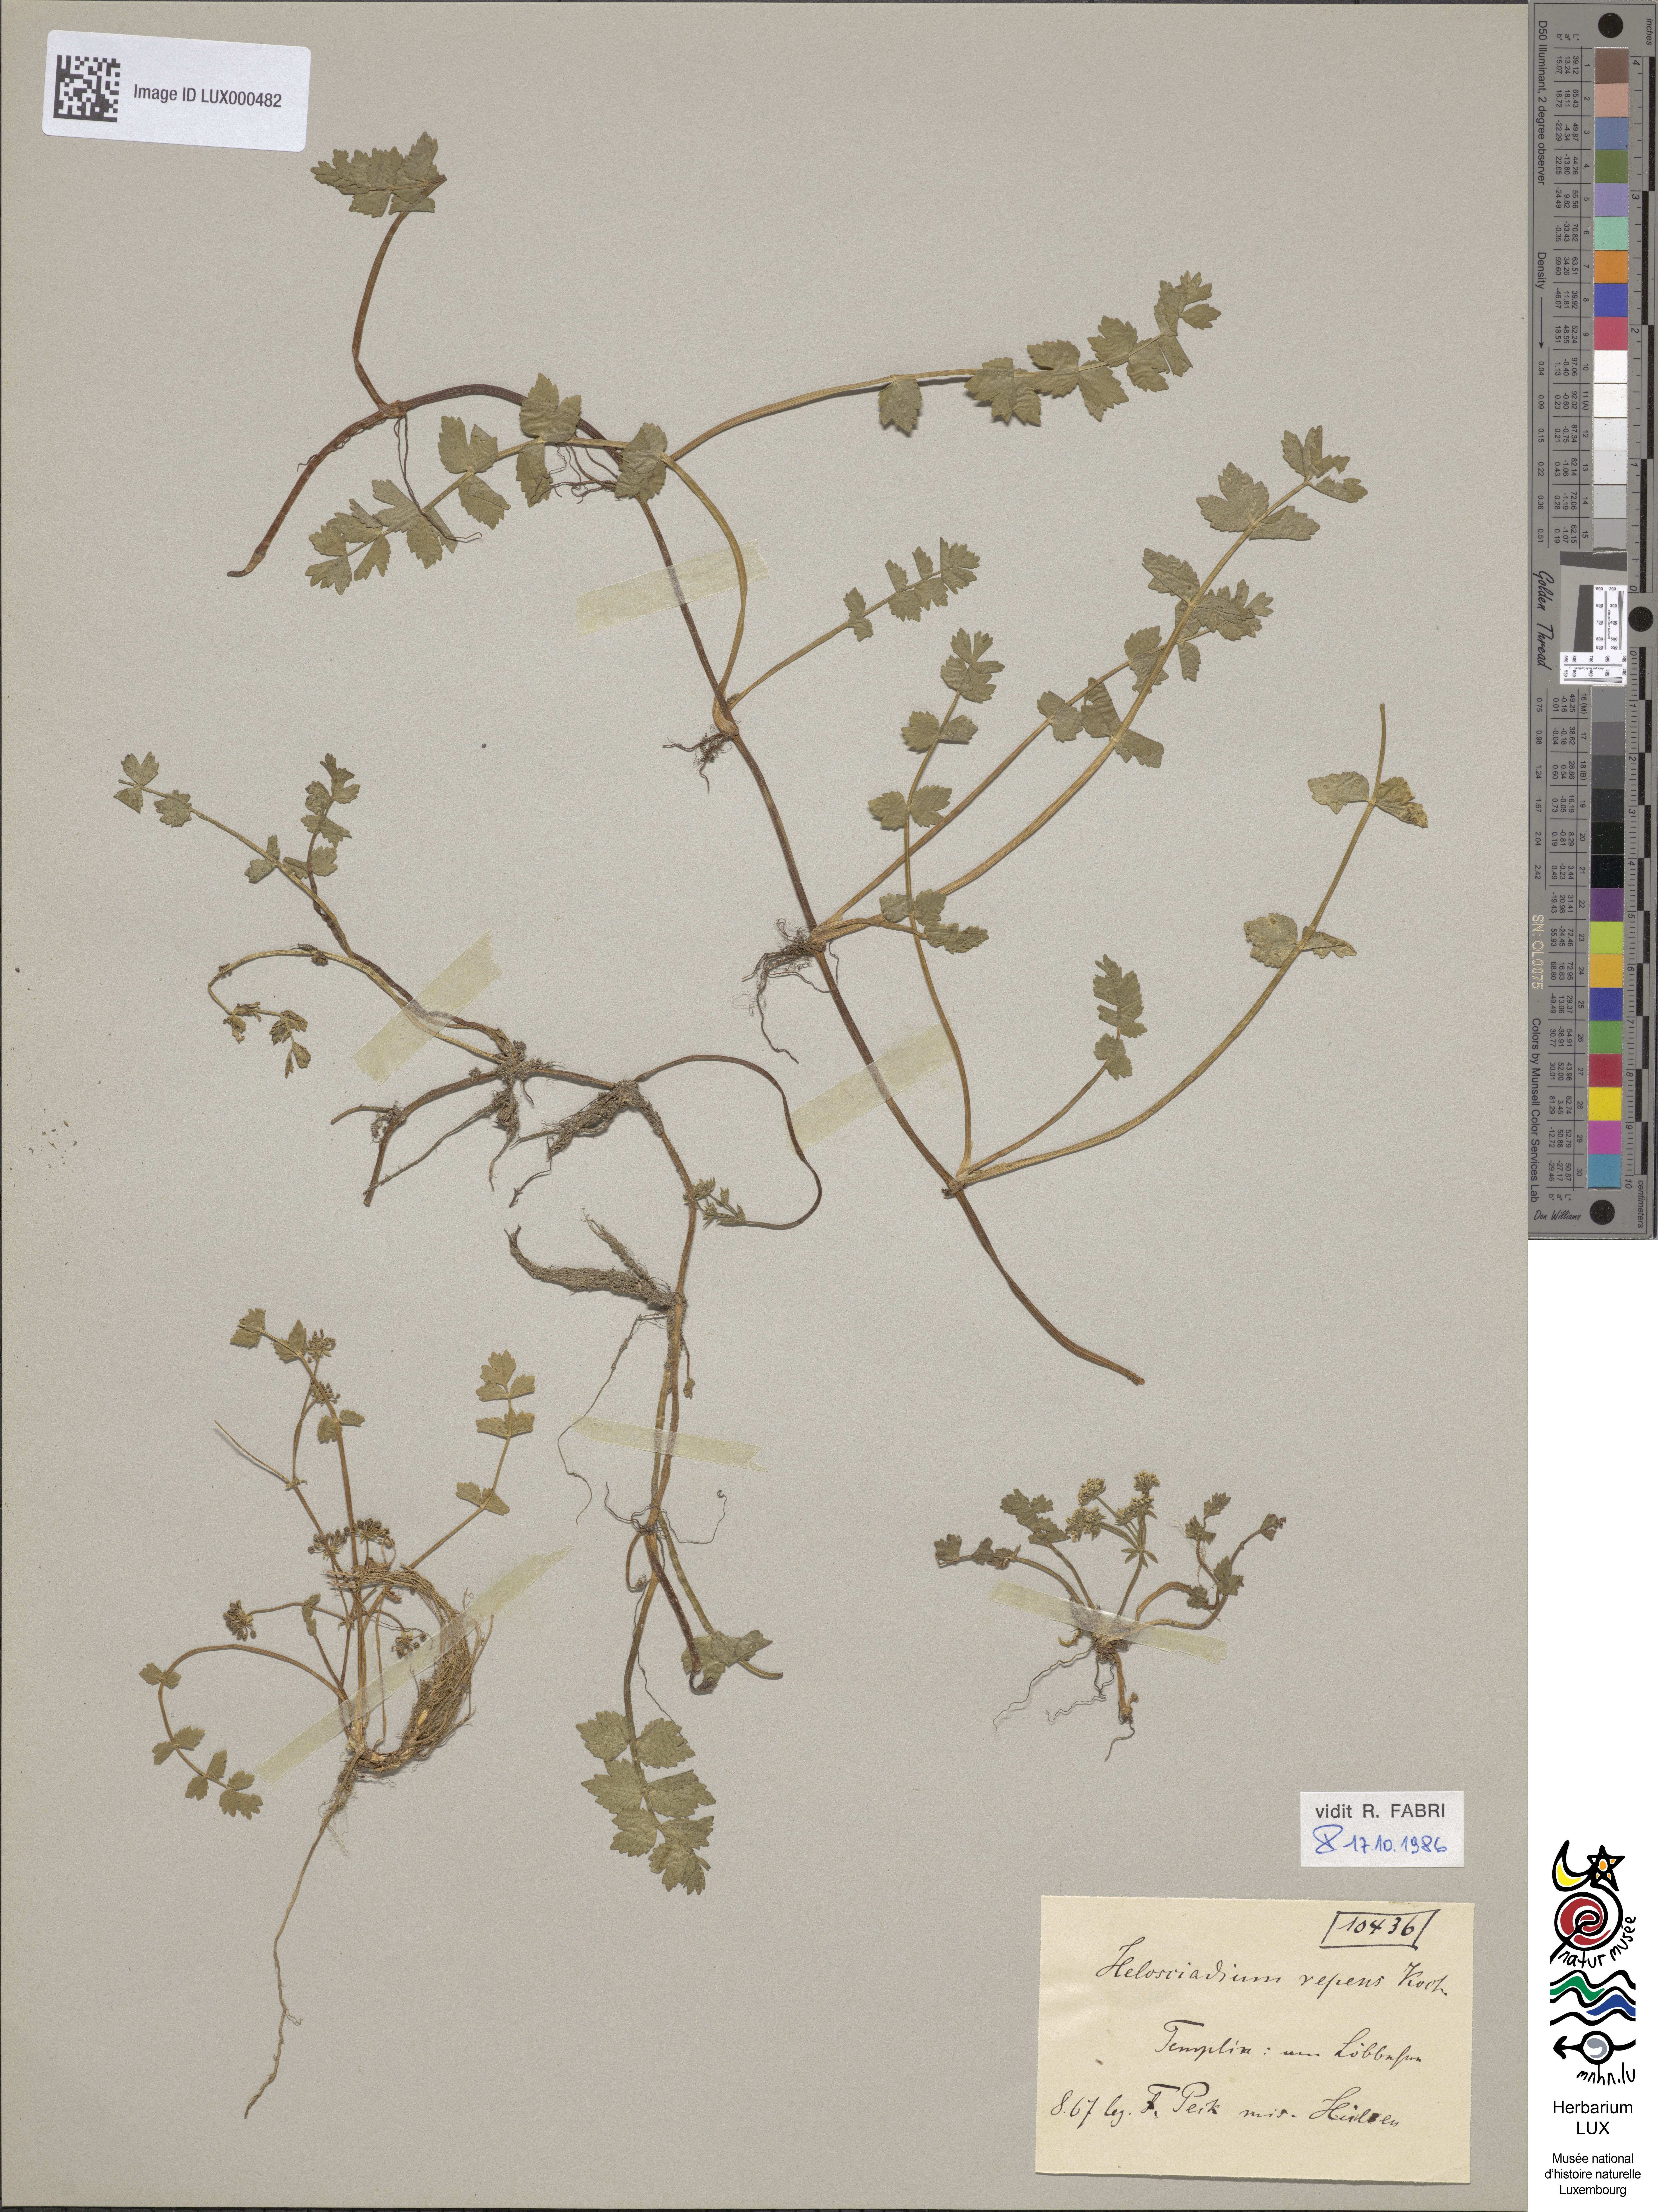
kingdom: Plantae
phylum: Tracheophyta
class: Magnoliopsida
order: Apiales
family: Apiaceae
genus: Helosciadium
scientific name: Helosciadium repens
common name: Creeping marshwort
